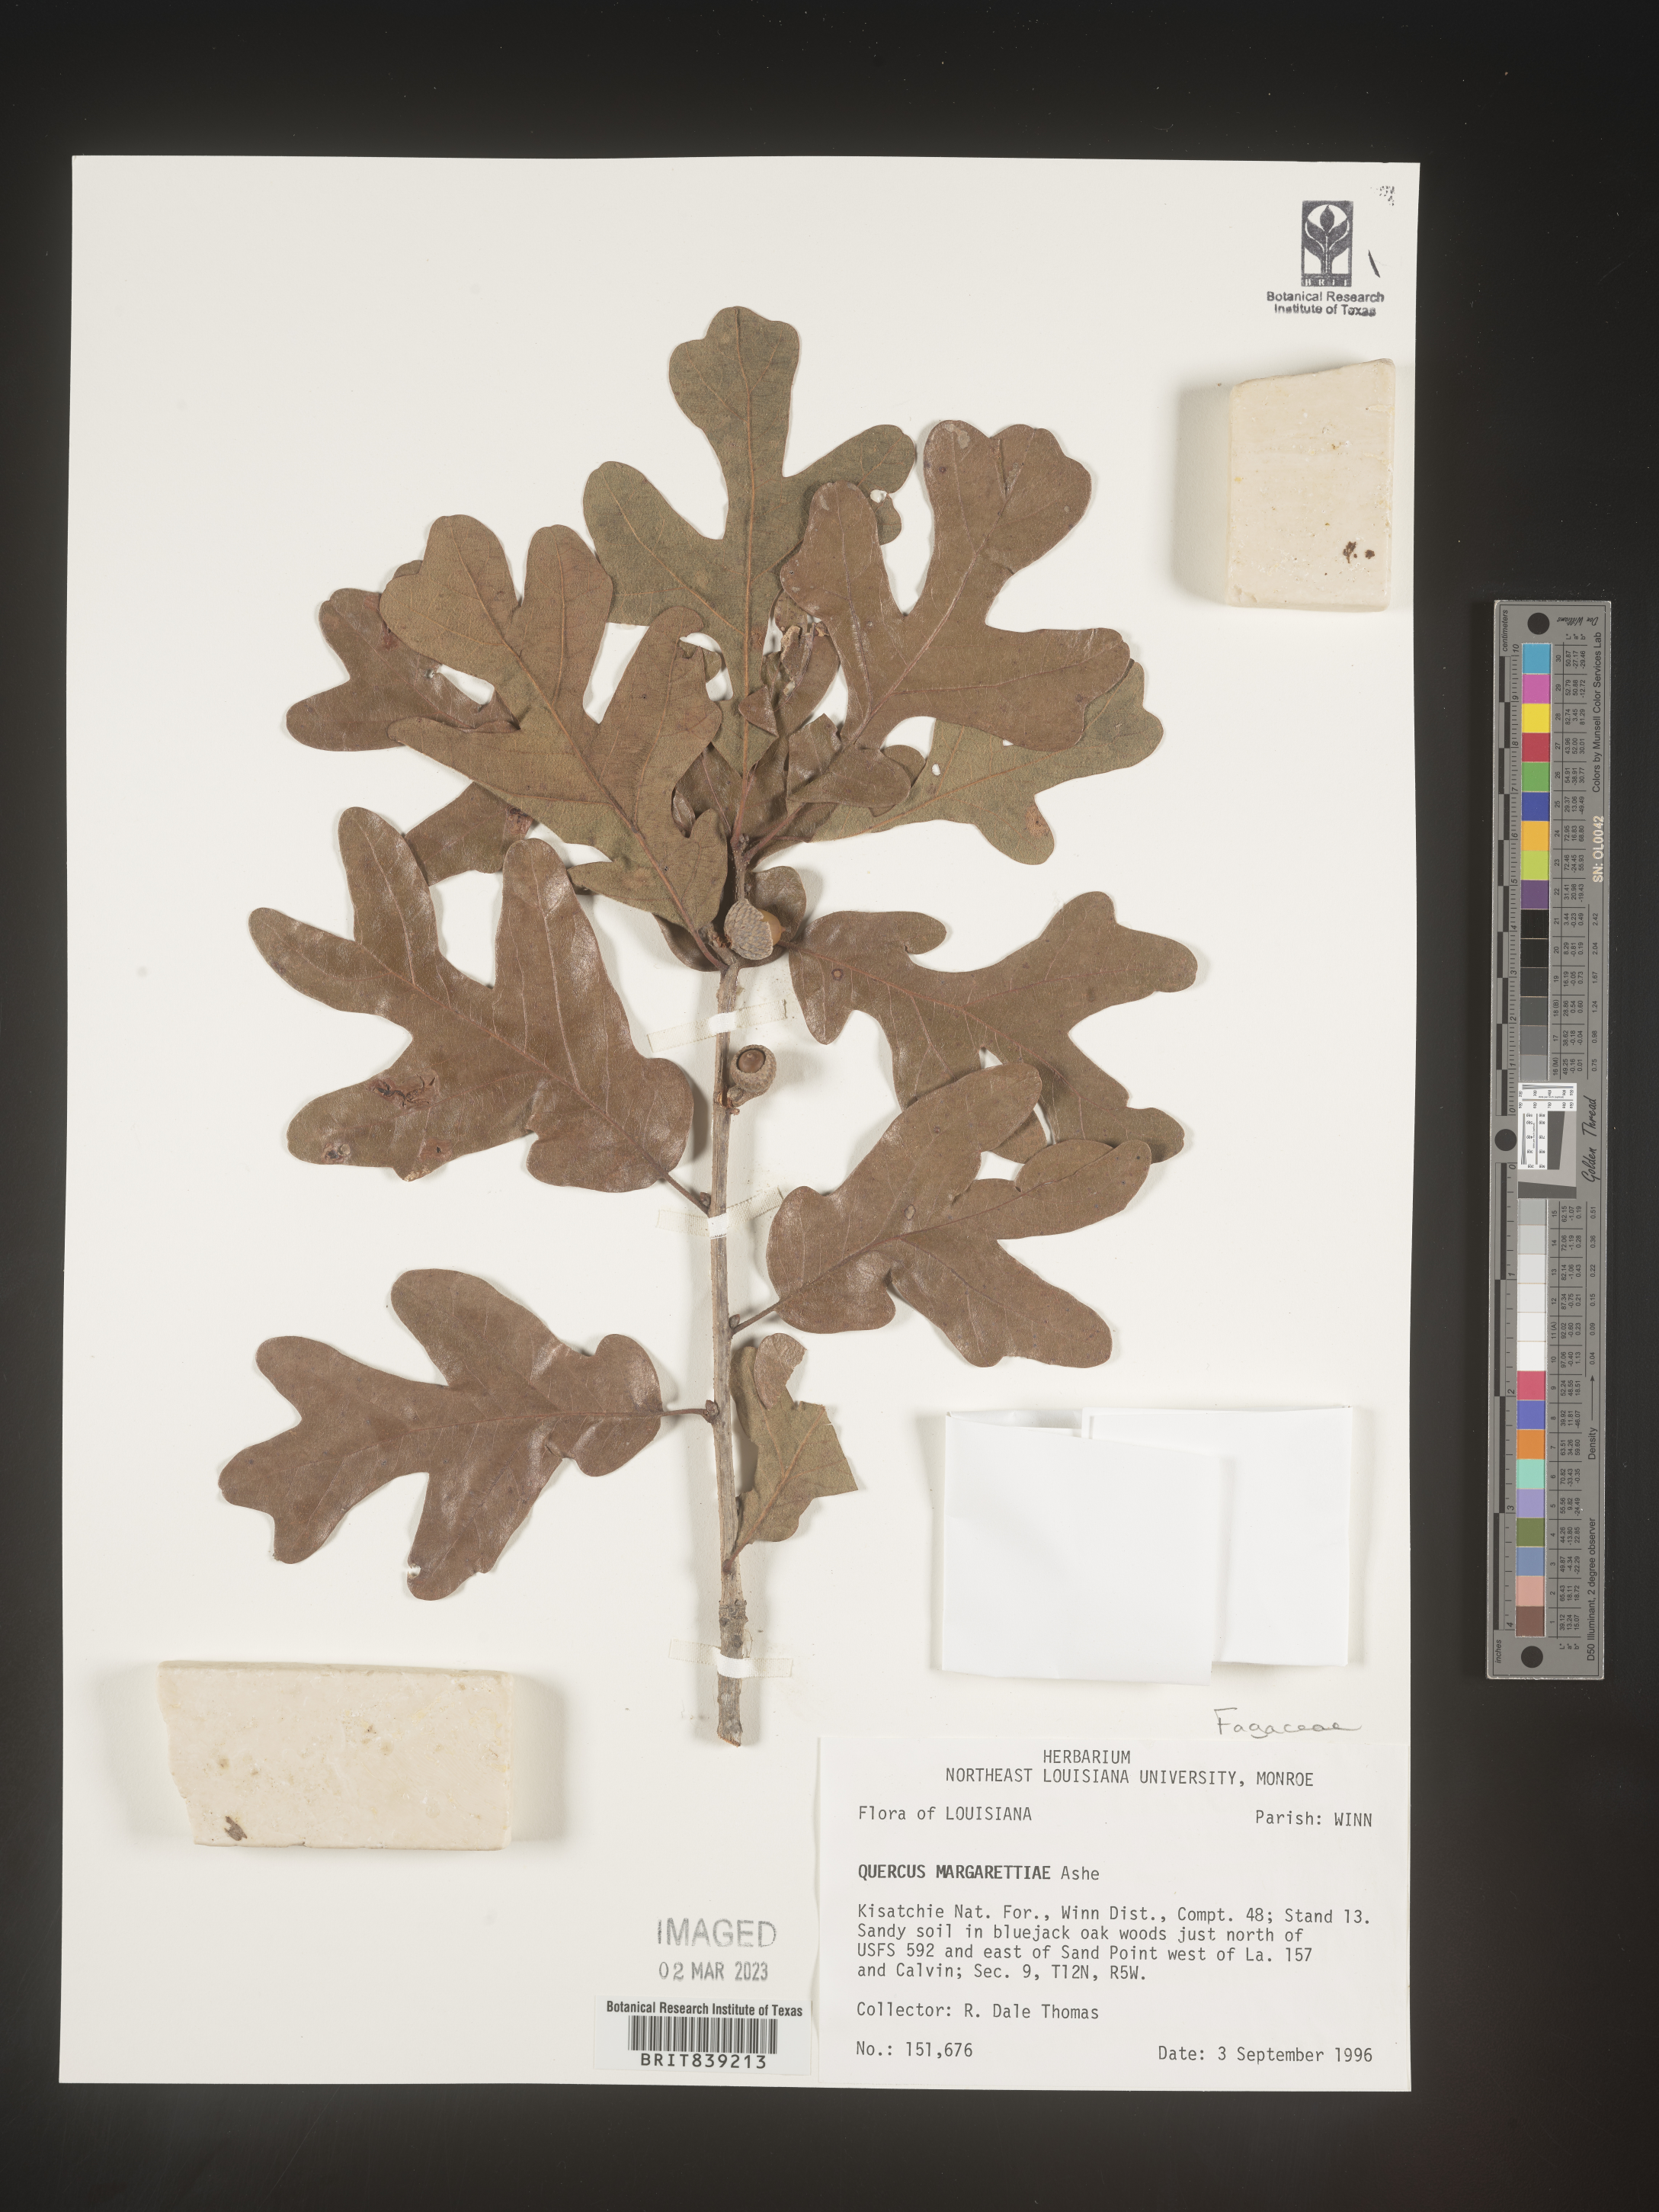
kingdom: Plantae
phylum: Tracheophyta
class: Magnoliopsida
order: Fagales
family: Fagaceae
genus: Quercus
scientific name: Quercus margaretta
